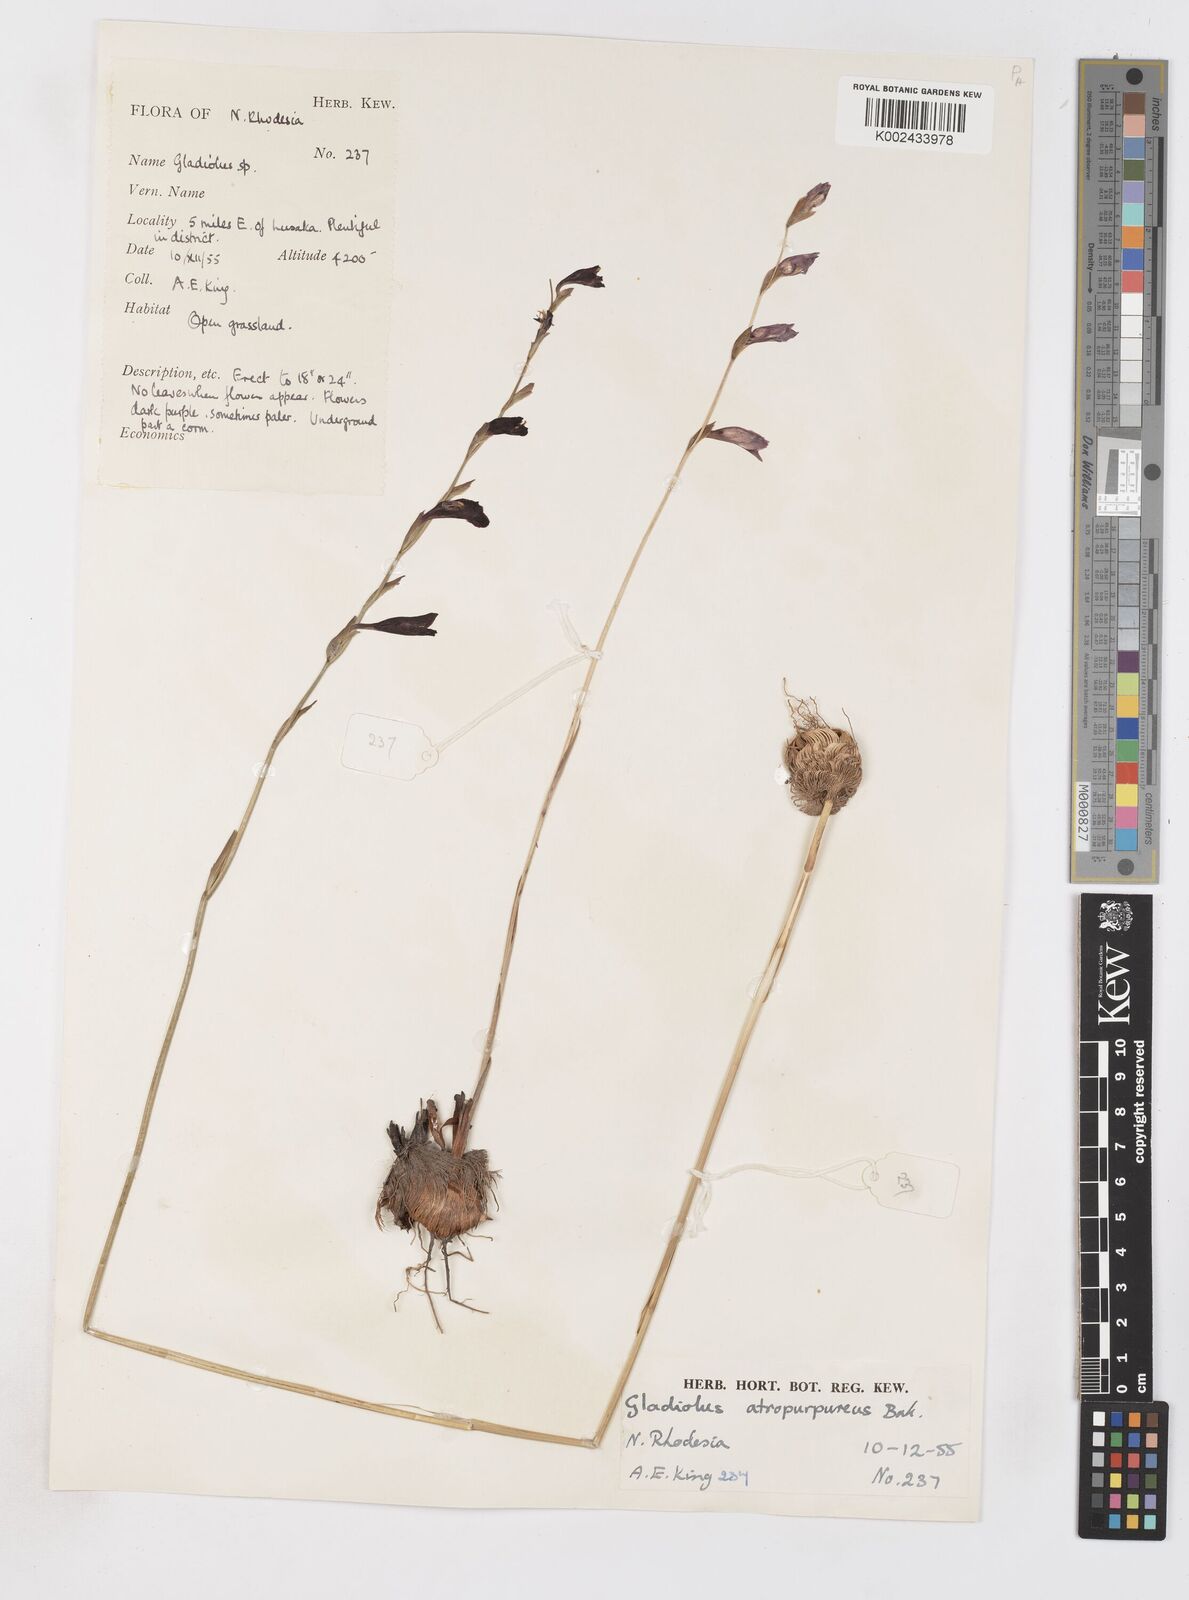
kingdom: Plantae
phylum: Tracheophyta
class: Liliopsida
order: Asparagales
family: Iridaceae
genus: Gladiolus
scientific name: Gladiolus atropurpureus
